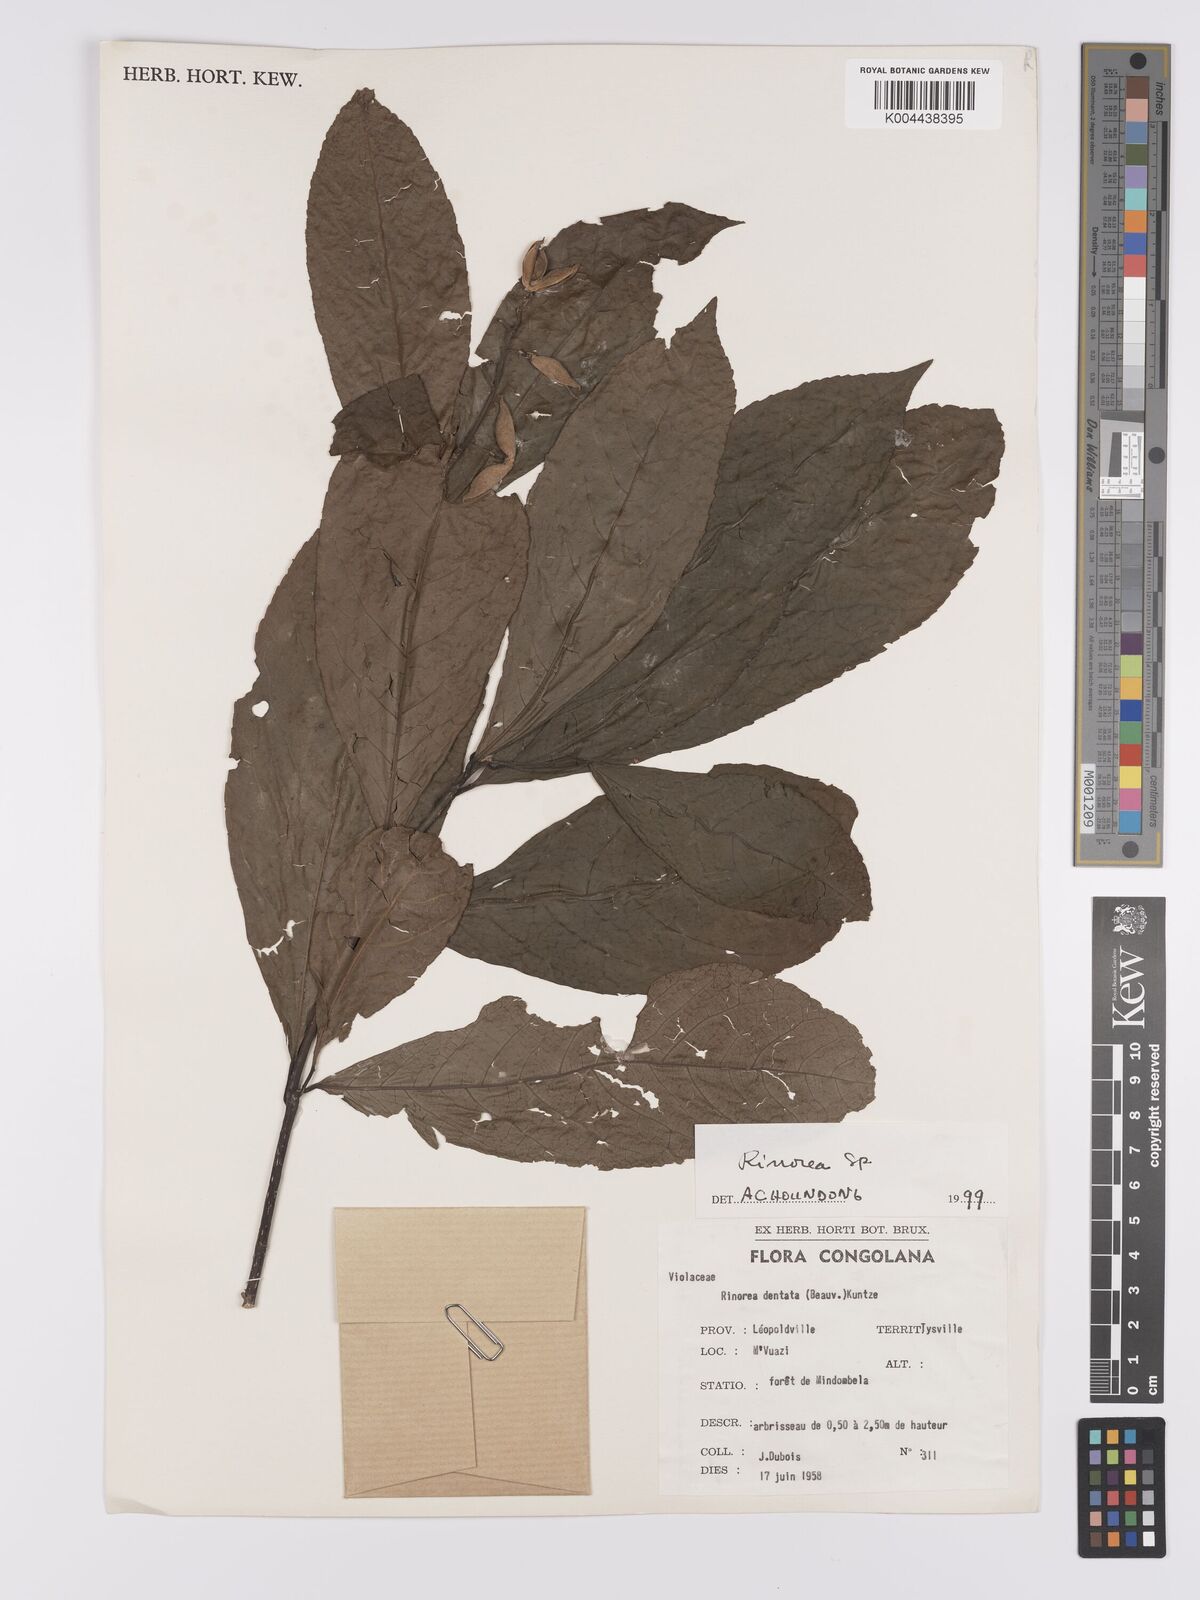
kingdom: Plantae
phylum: Tracheophyta
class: Magnoliopsida
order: Malpighiales
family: Violaceae
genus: Rinorea
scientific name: Rinorea
